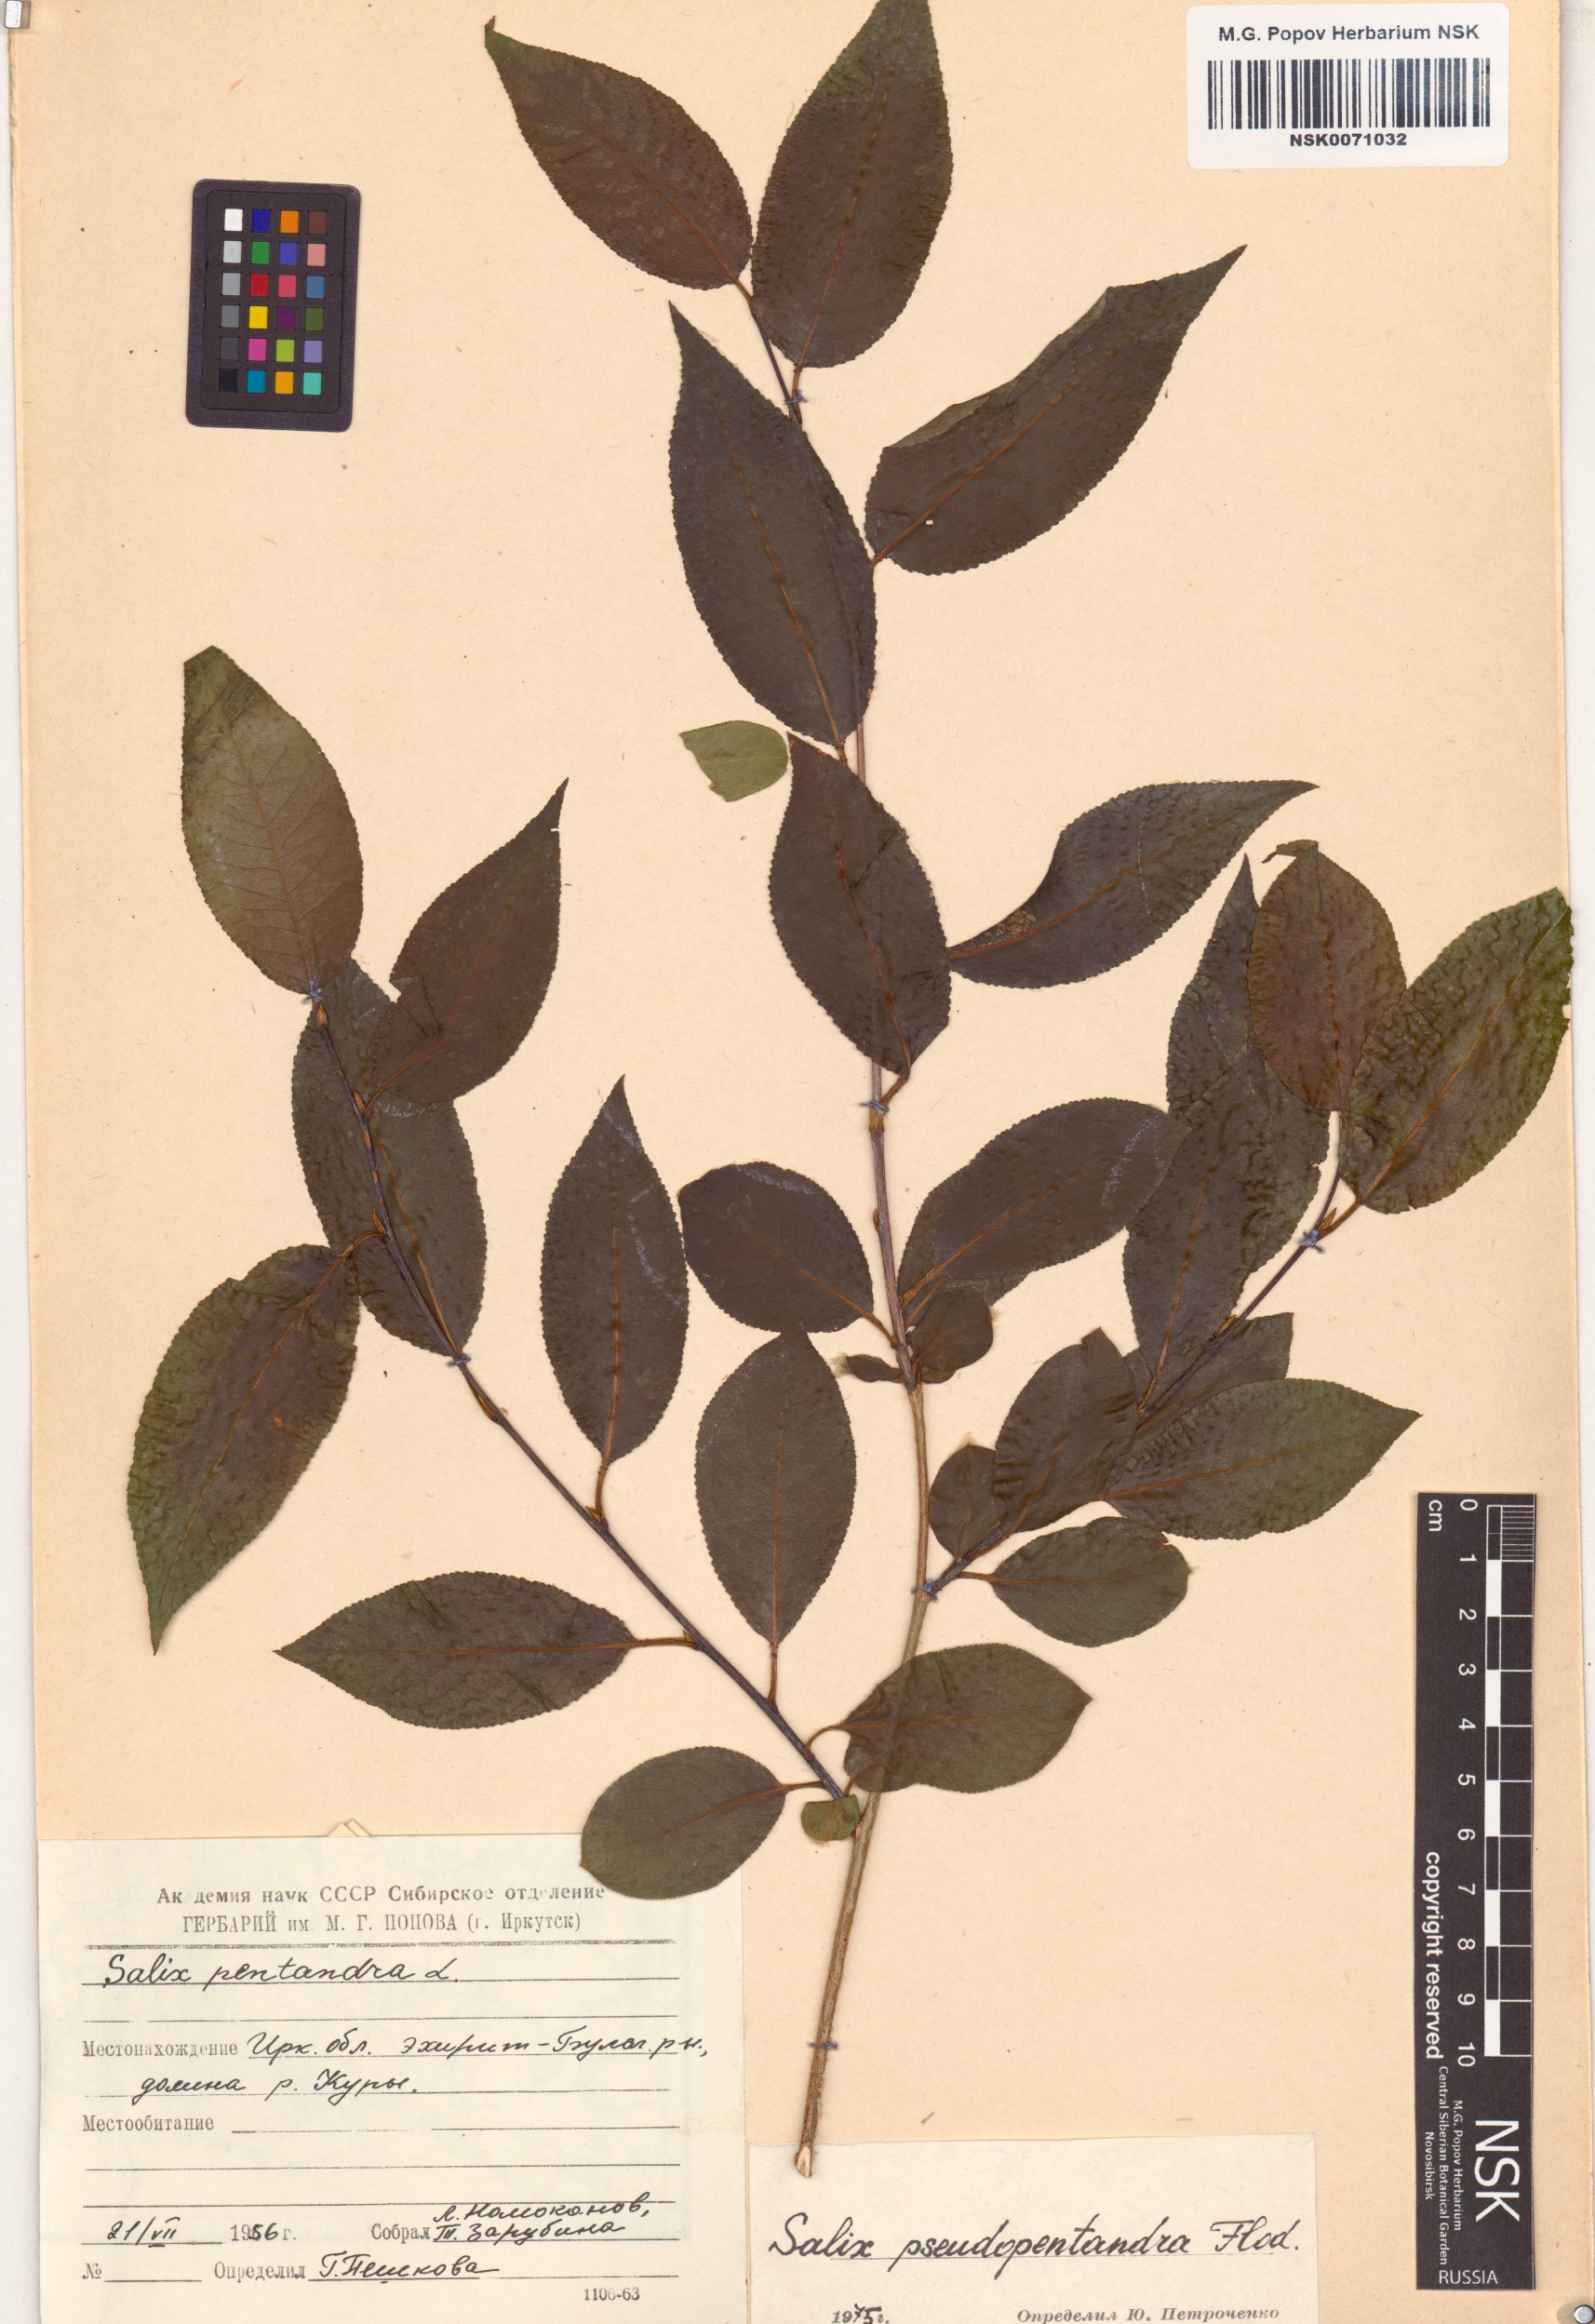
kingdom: Plantae
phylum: Tracheophyta
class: Magnoliopsida
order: Malpighiales
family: Salicaceae
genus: Salix
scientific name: Salix pseudopentandra
